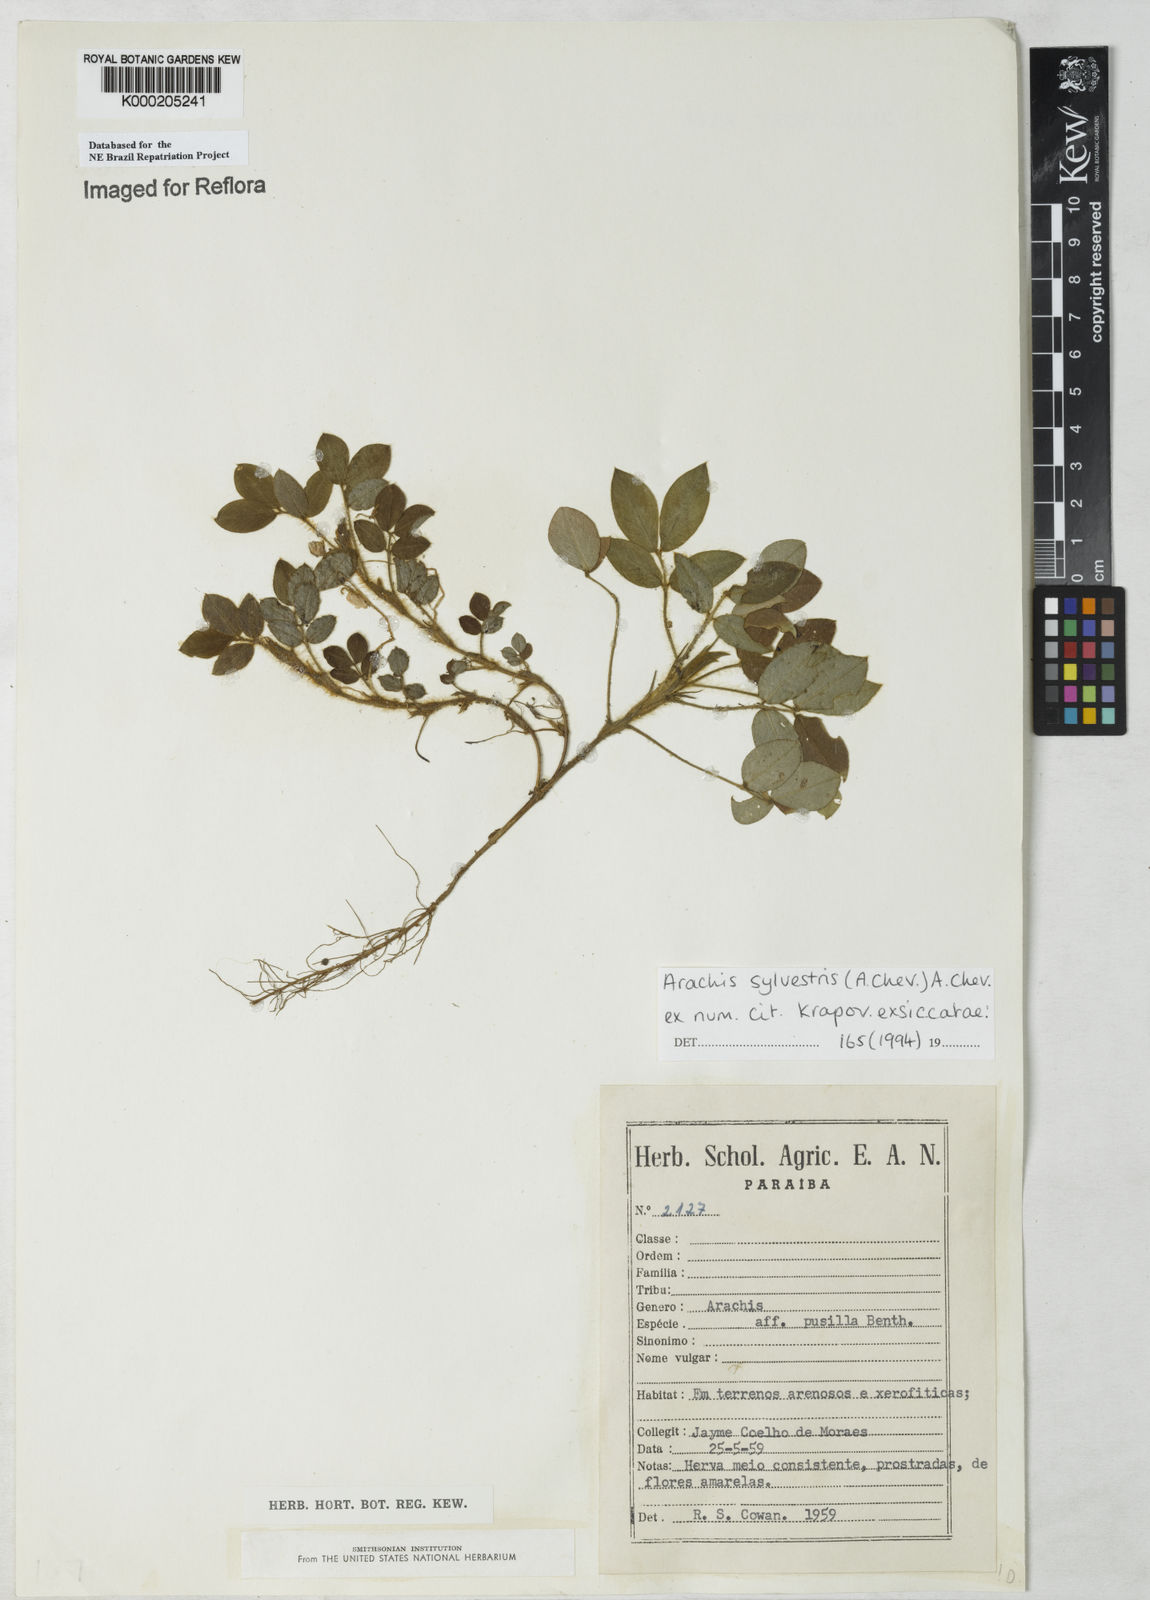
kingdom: Plantae
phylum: Tracheophyta
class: Magnoliopsida
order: Fabales
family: Fabaceae
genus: Arachis
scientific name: Arachis pusilla
